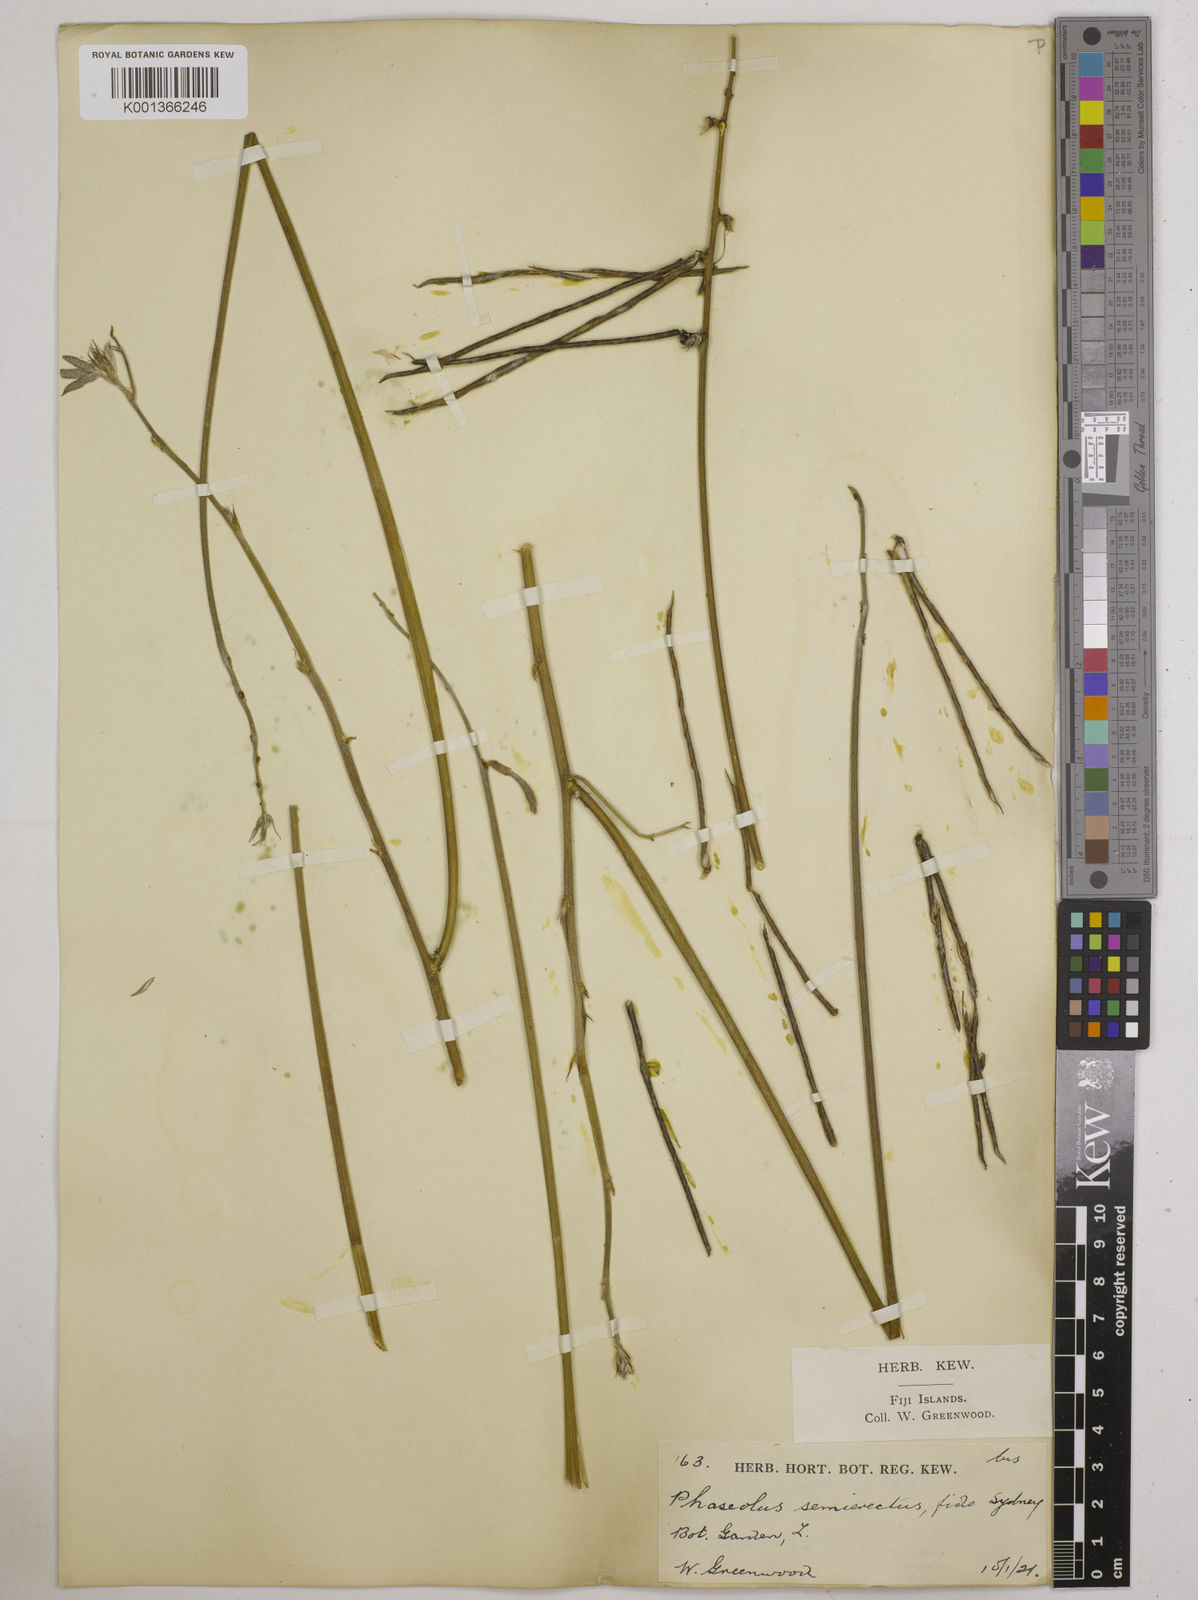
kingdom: Plantae
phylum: Tracheophyta
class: Magnoliopsida
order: Fabales
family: Fabaceae
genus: Macroptilium
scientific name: Macroptilium lathyroides
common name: Wild bushbean
